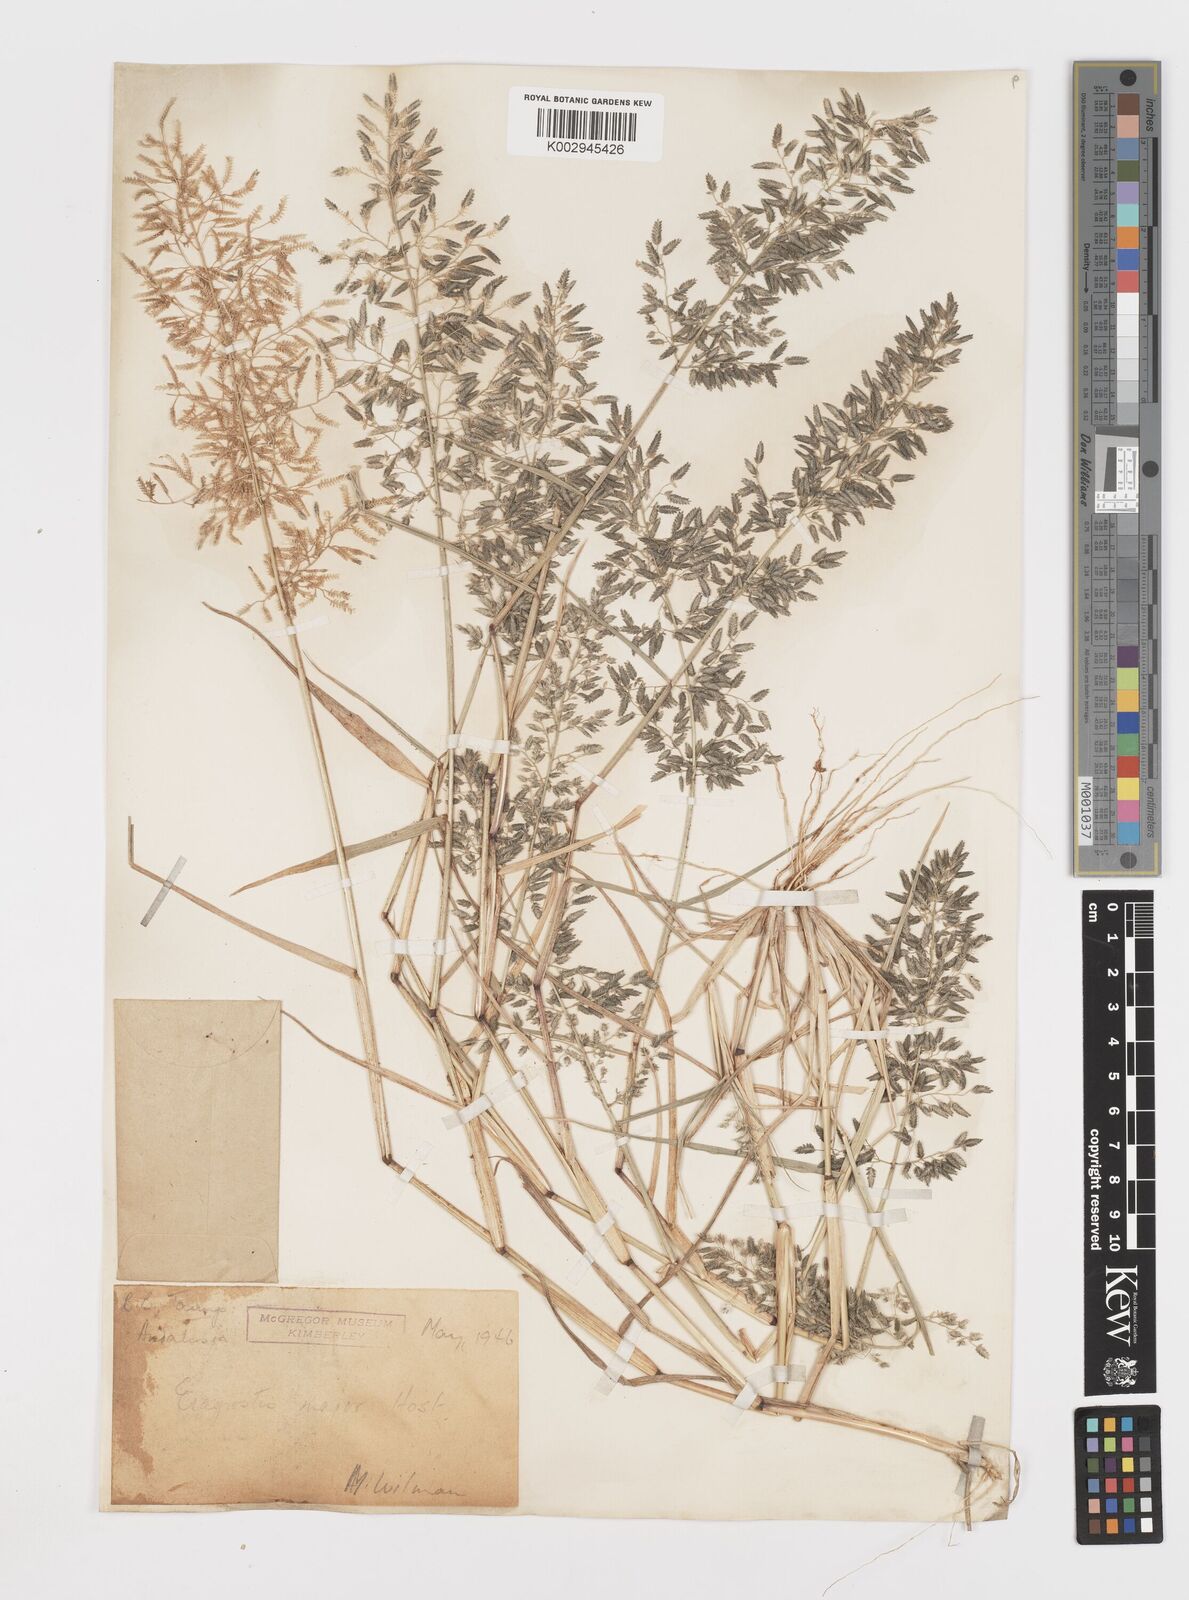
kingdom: Plantae
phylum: Tracheophyta
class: Liliopsida
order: Poales
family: Poaceae
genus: Eragrostis
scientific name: Eragrostis cilianensis
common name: Stinkgrass
